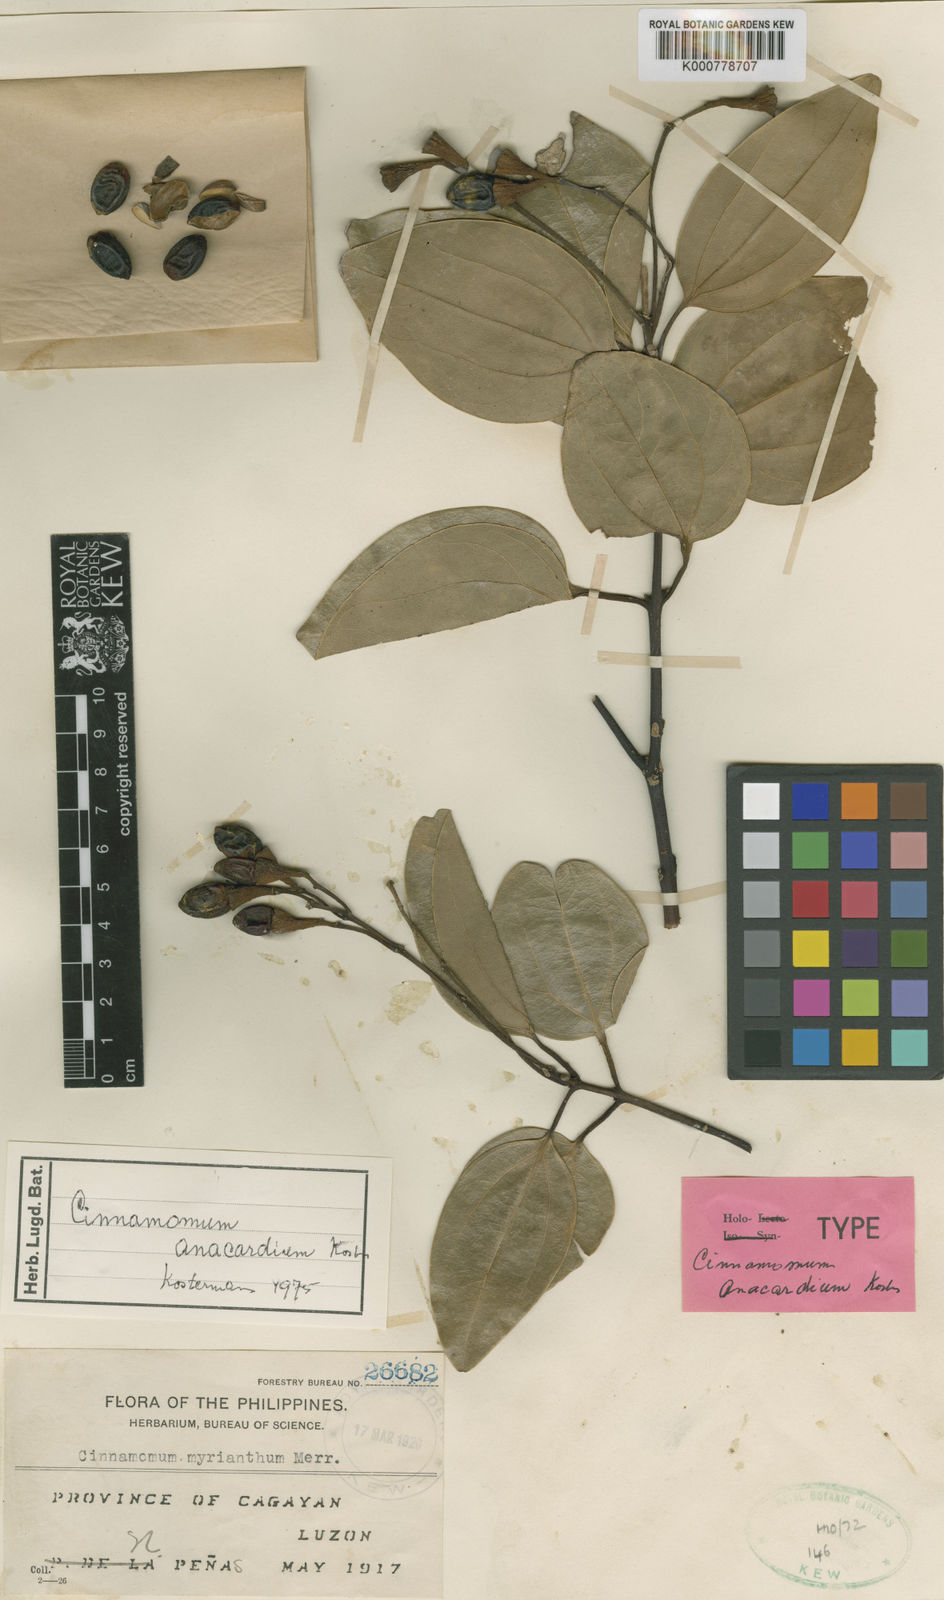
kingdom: Plantae
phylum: Tracheophyta
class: Magnoliopsida
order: Laurales
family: Lauraceae
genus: Cinnamomum
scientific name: Cinnamomum
